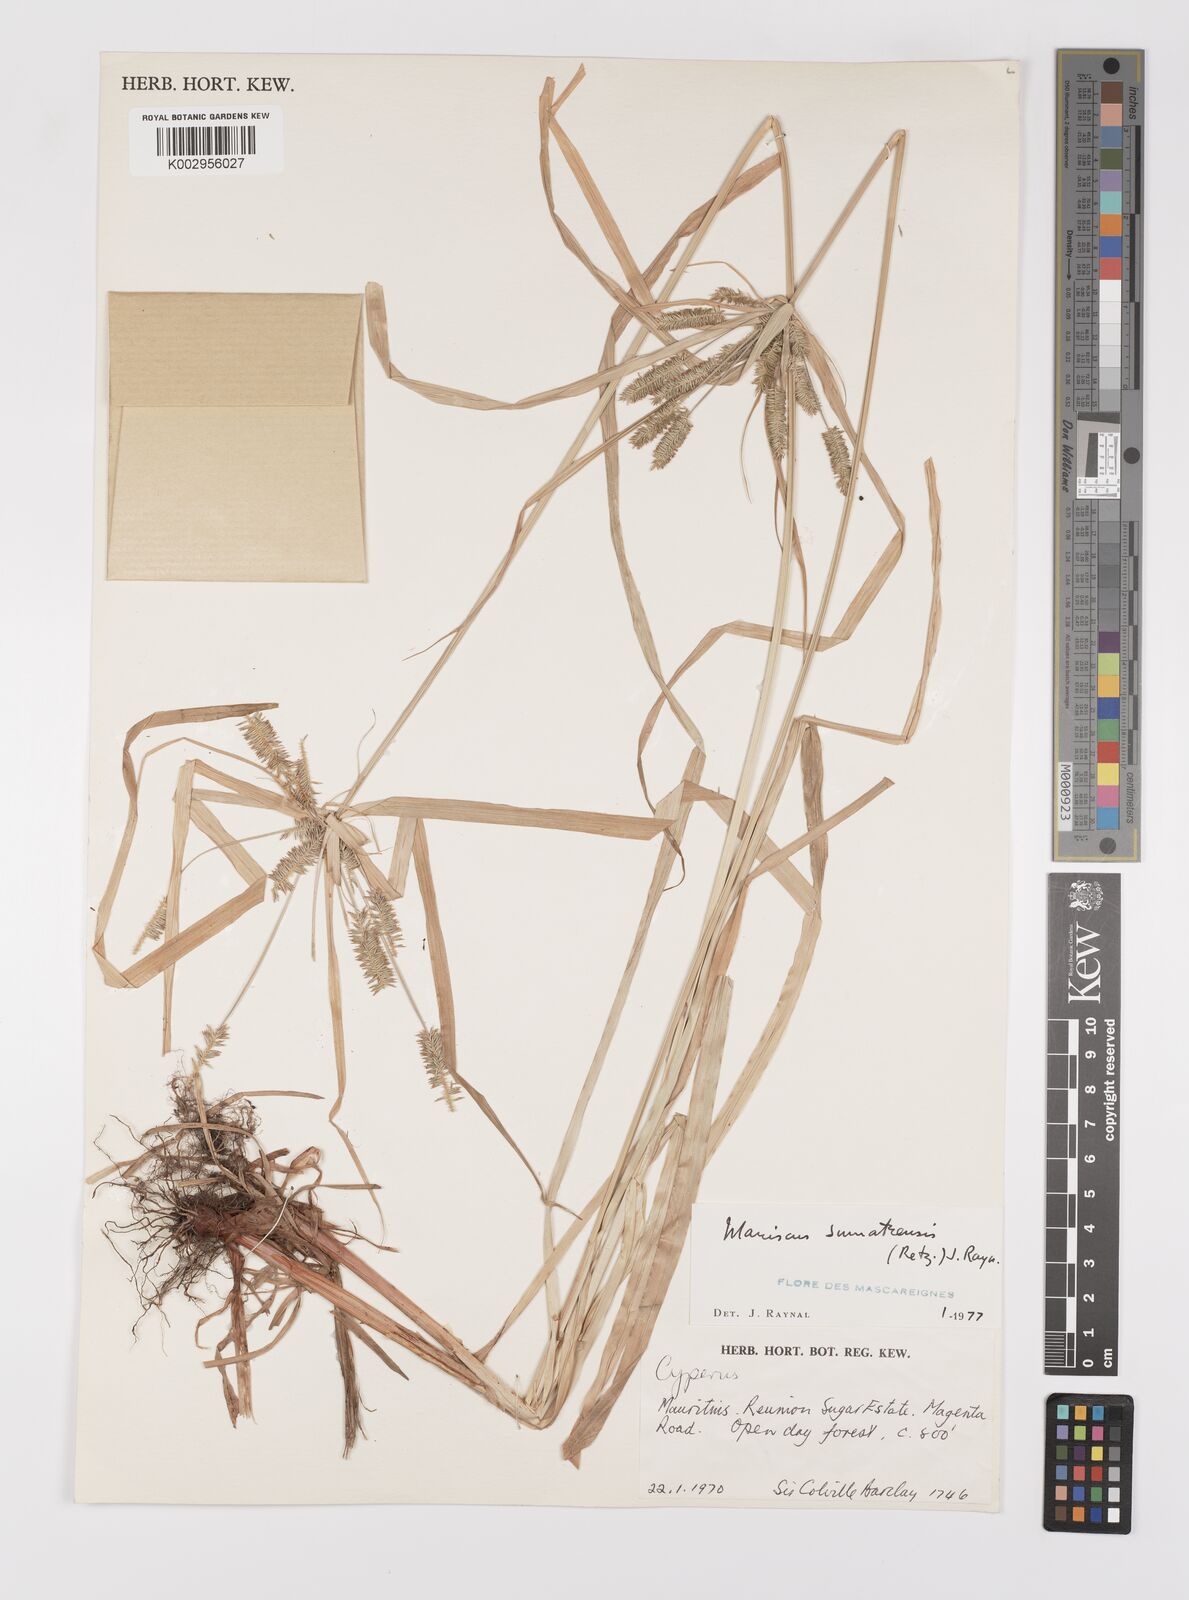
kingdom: Plantae
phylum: Tracheophyta
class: Liliopsida
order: Poales
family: Cyperaceae
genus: Cyperus
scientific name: Cyperus cyperoides
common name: Pacific island flat sedge
